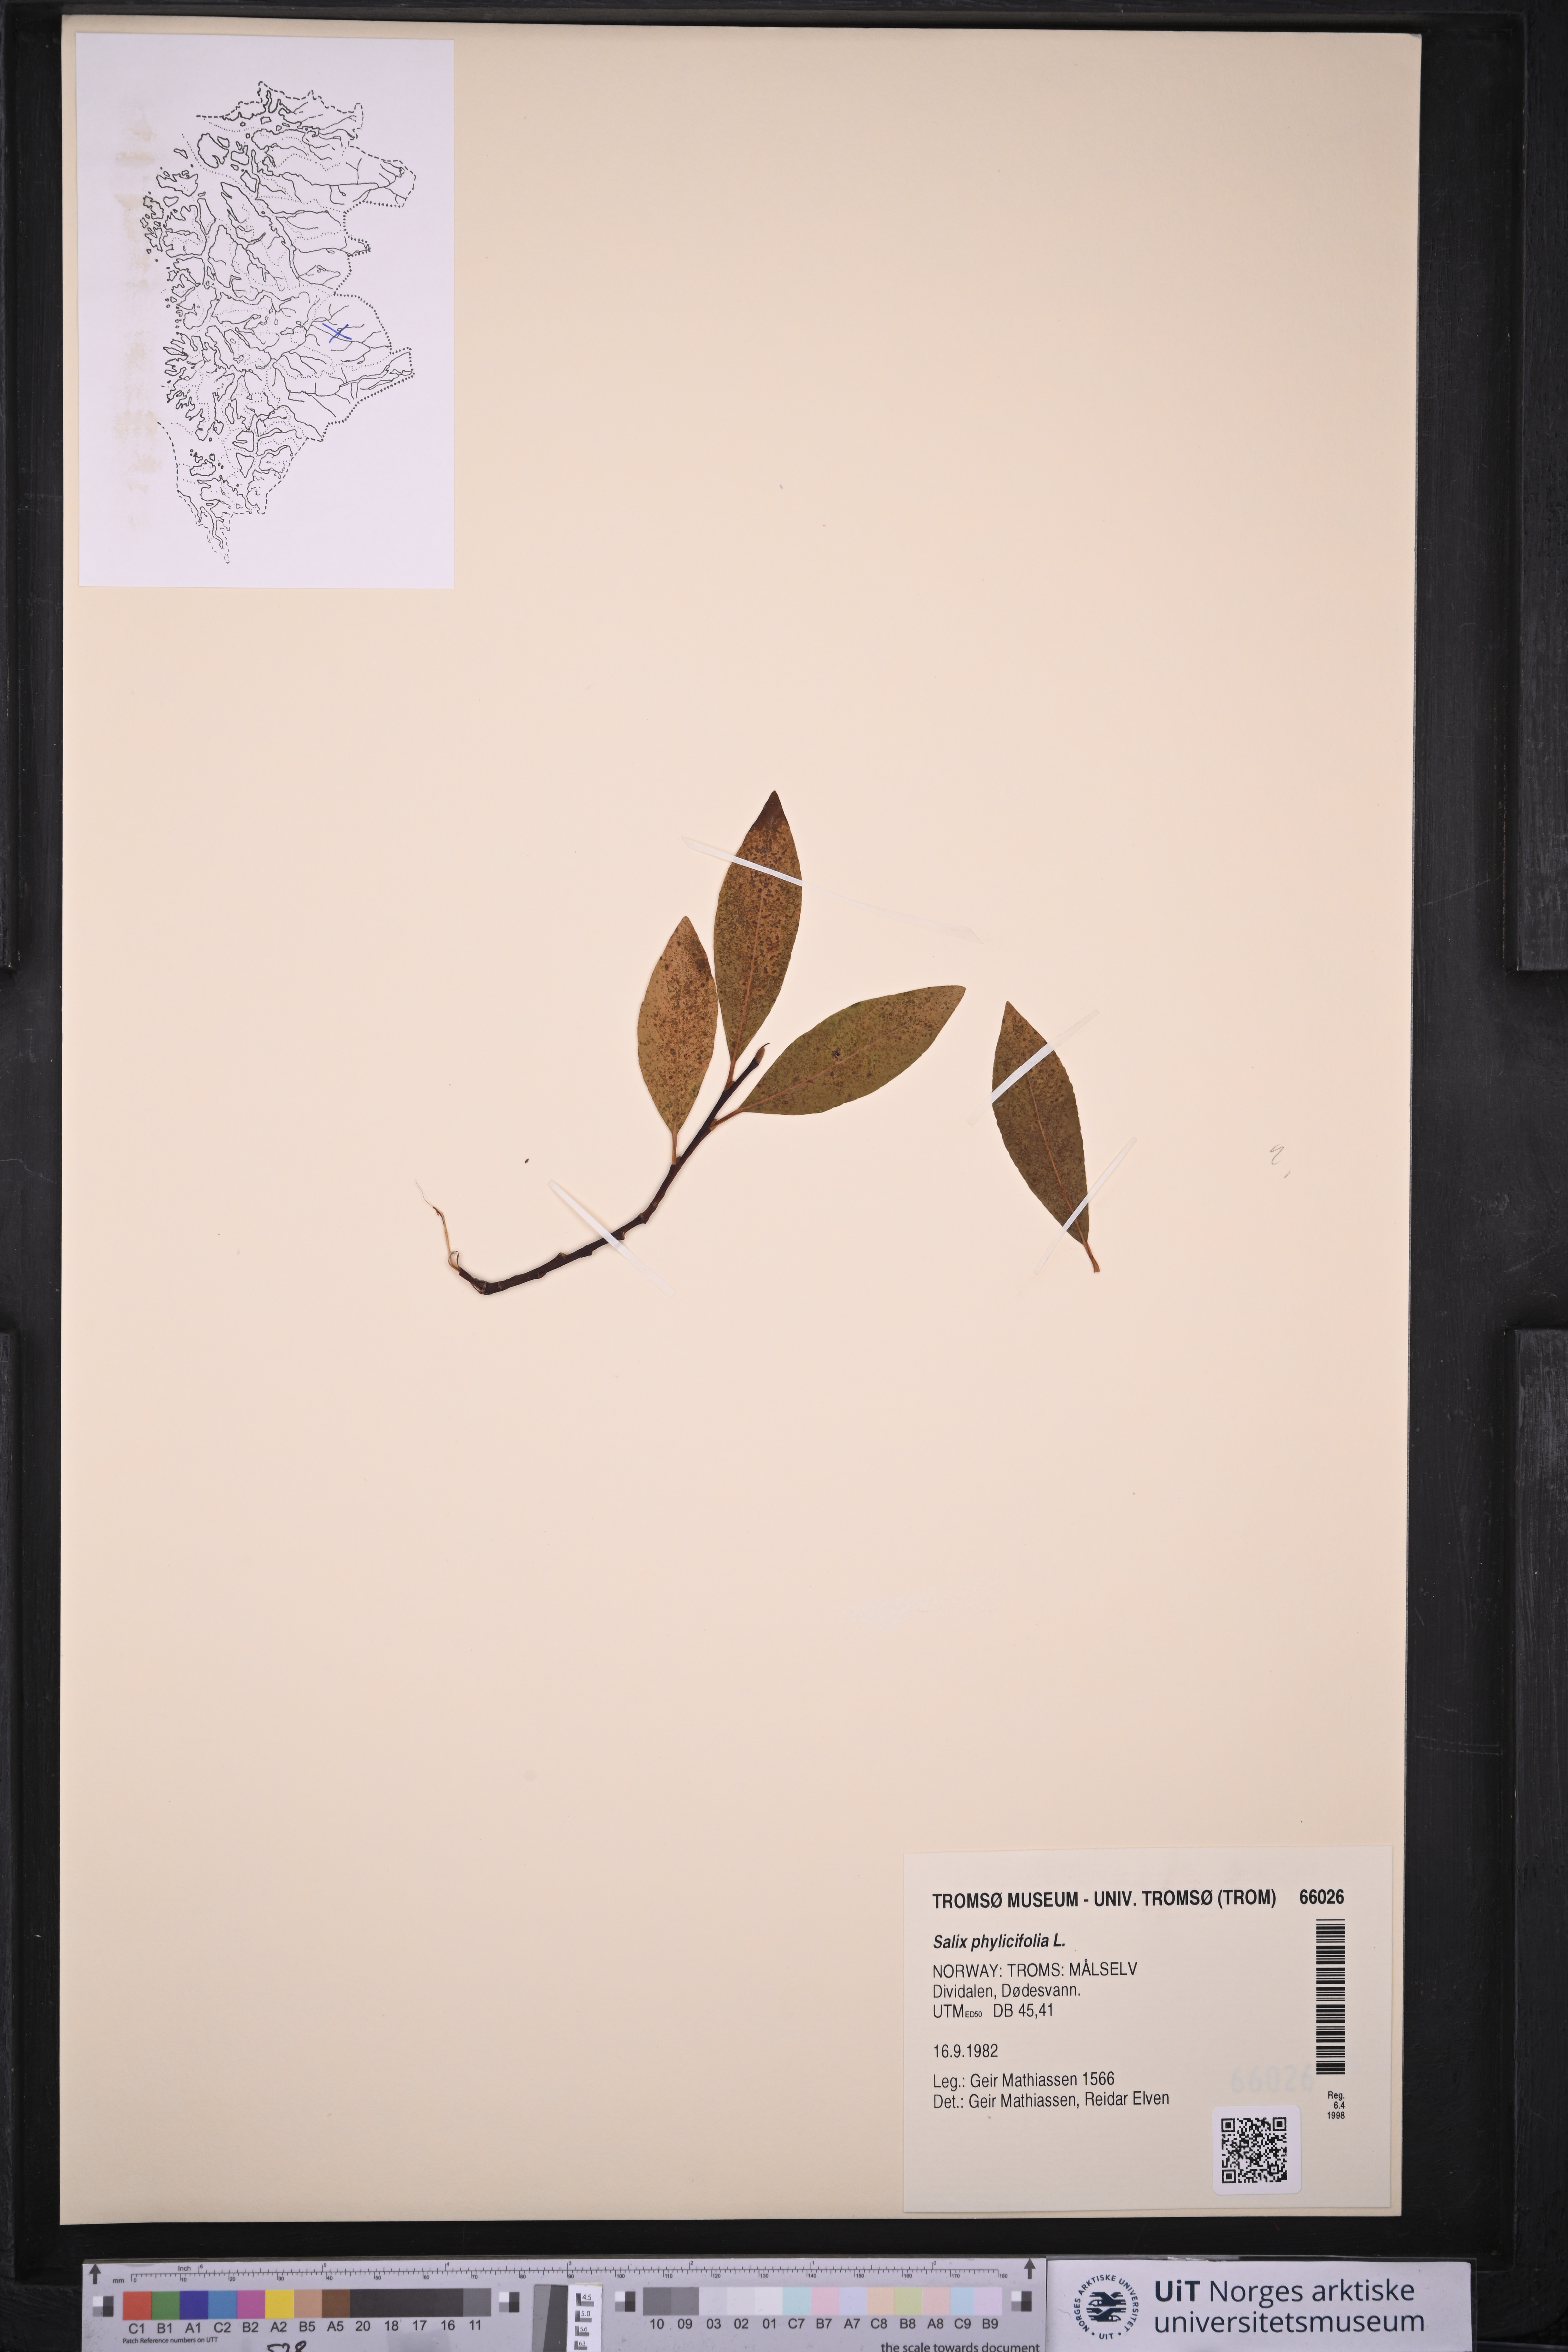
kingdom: Plantae
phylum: Tracheophyta
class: Magnoliopsida
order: Malpighiales
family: Salicaceae
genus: Salix
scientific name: Salix phylicifolia
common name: Tea-leaved willow
